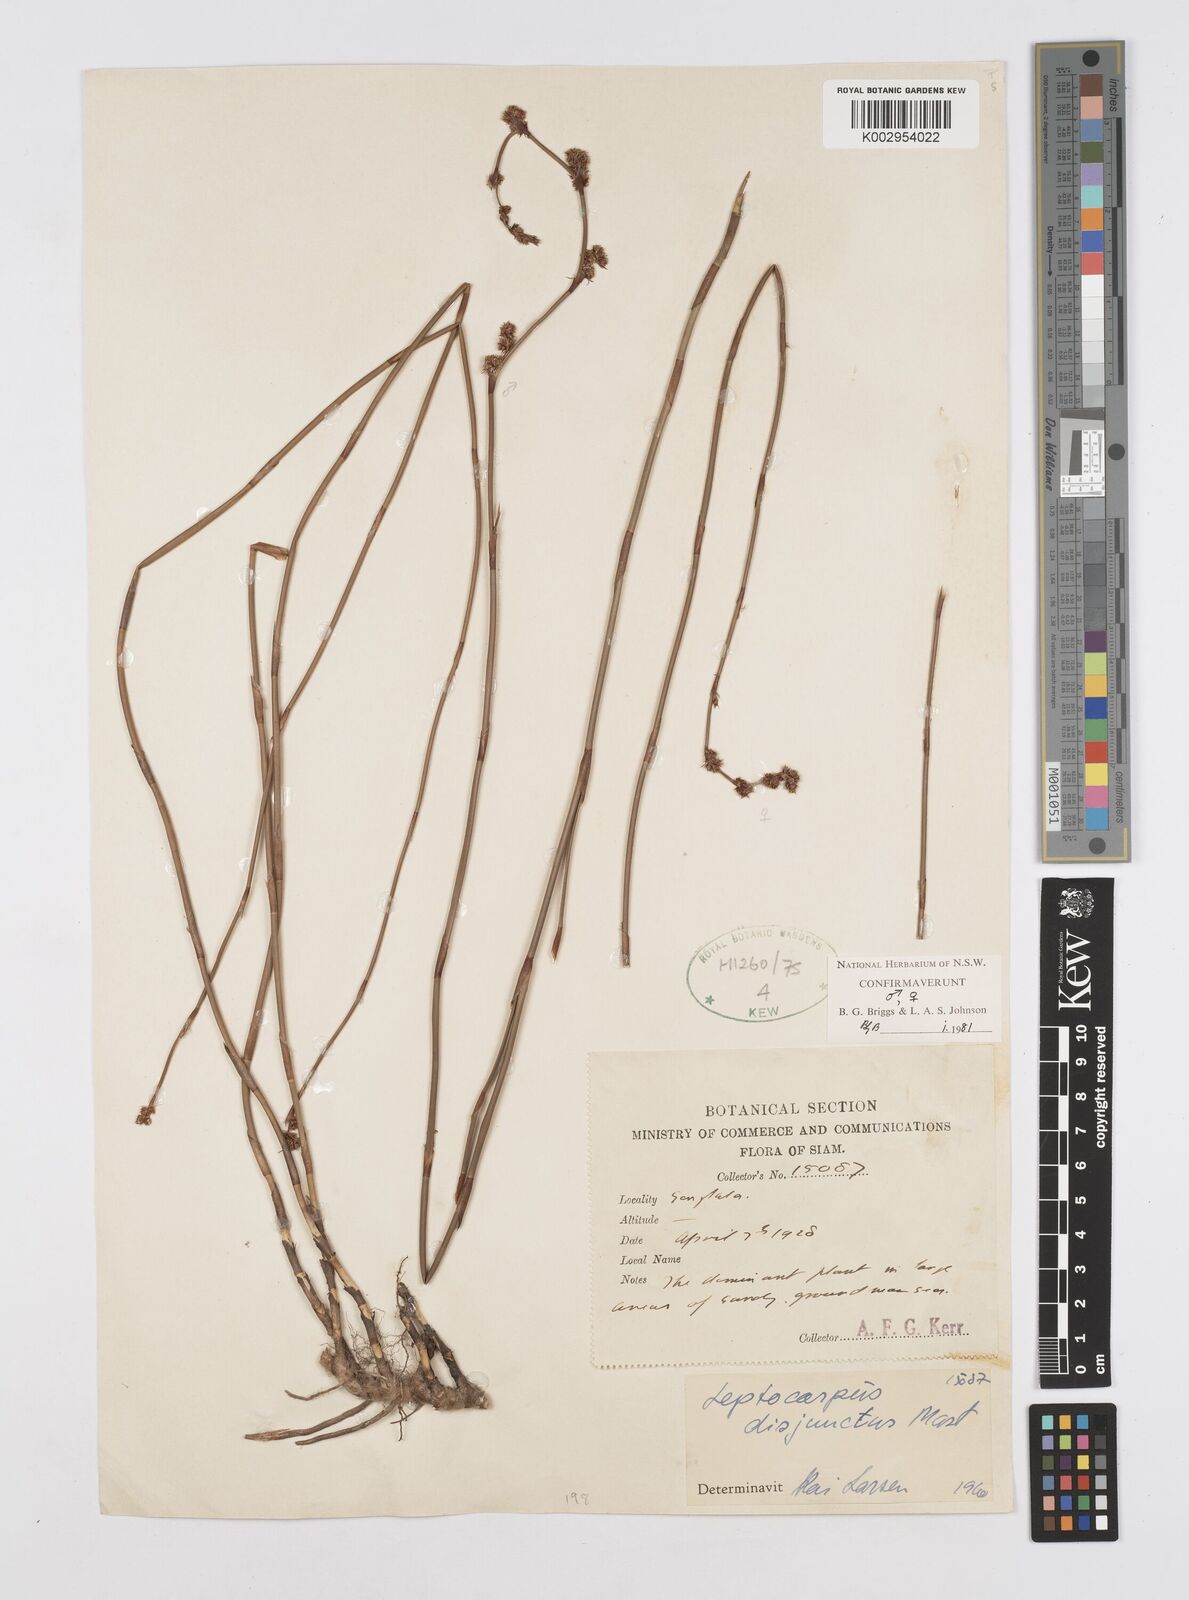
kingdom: Plantae
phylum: Tracheophyta
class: Liliopsida
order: Poales
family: Restionaceae
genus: Dapsilanthus
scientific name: Dapsilanthus disjunctus
